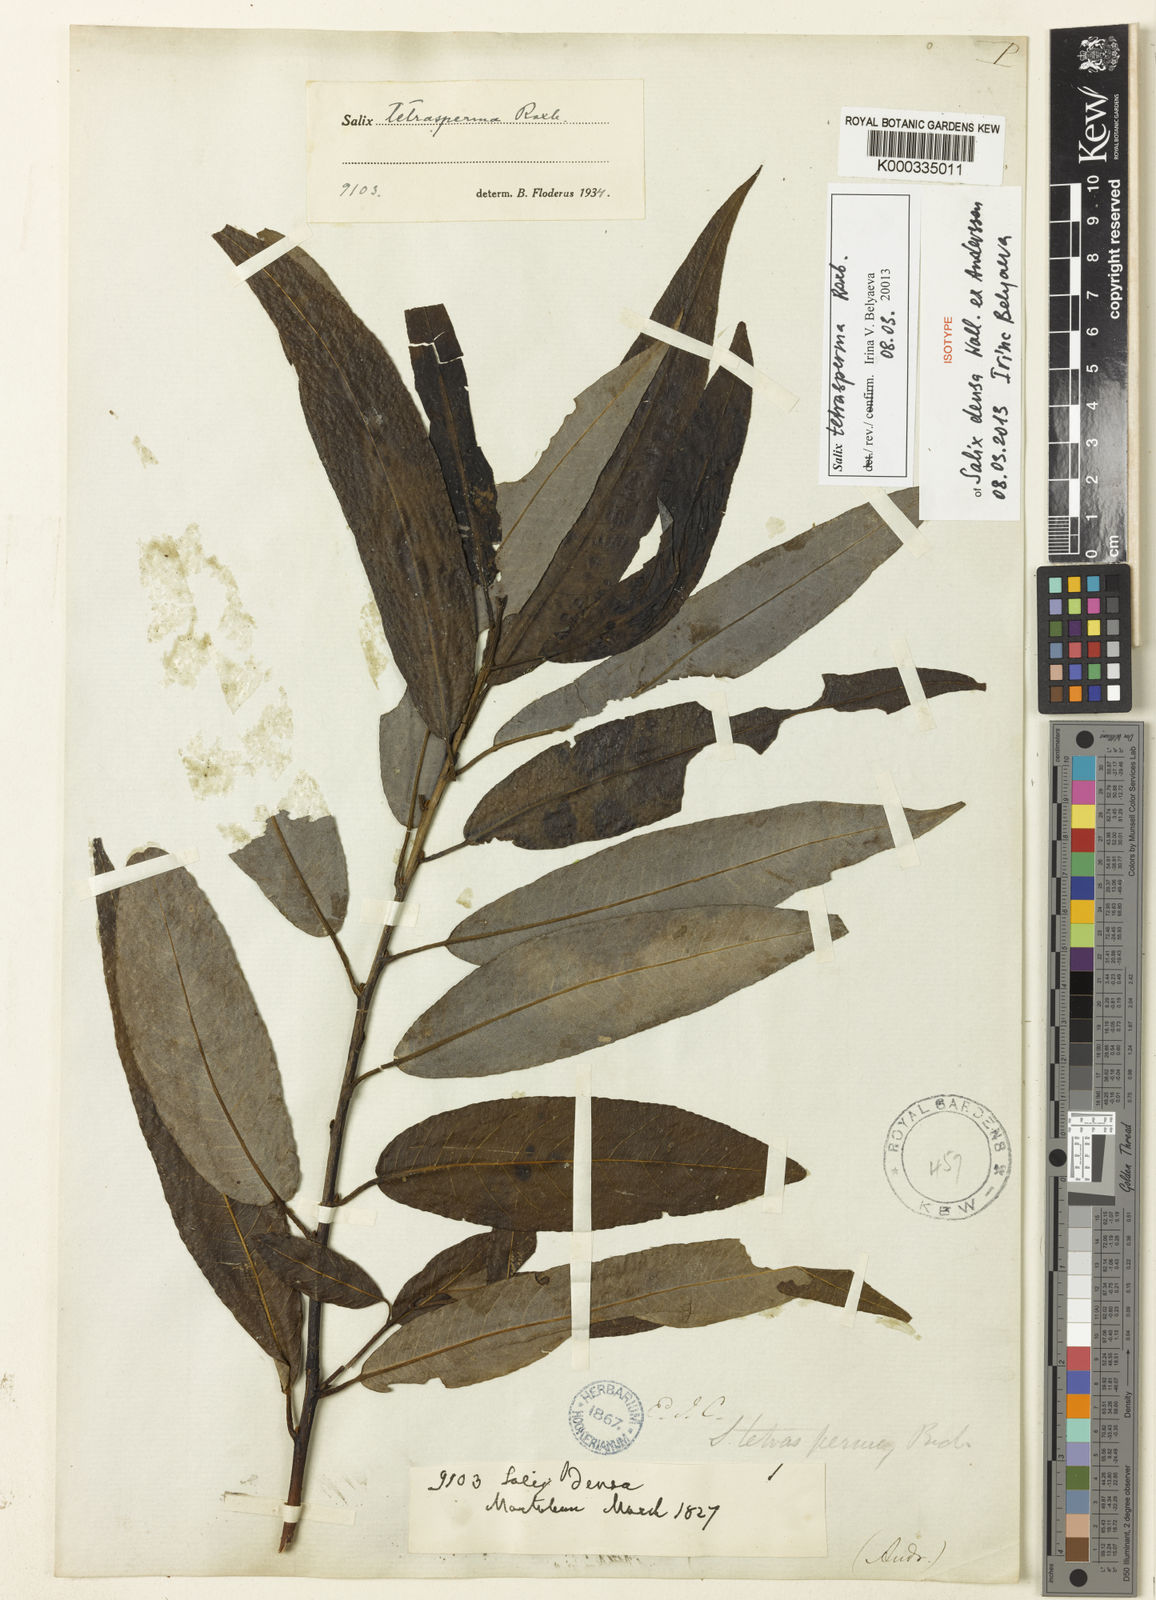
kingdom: Plantae
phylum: Tracheophyta
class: Magnoliopsida
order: Malpighiales
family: Salicaceae
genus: Salix
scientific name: Salix tetrasperma
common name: Indian willow
